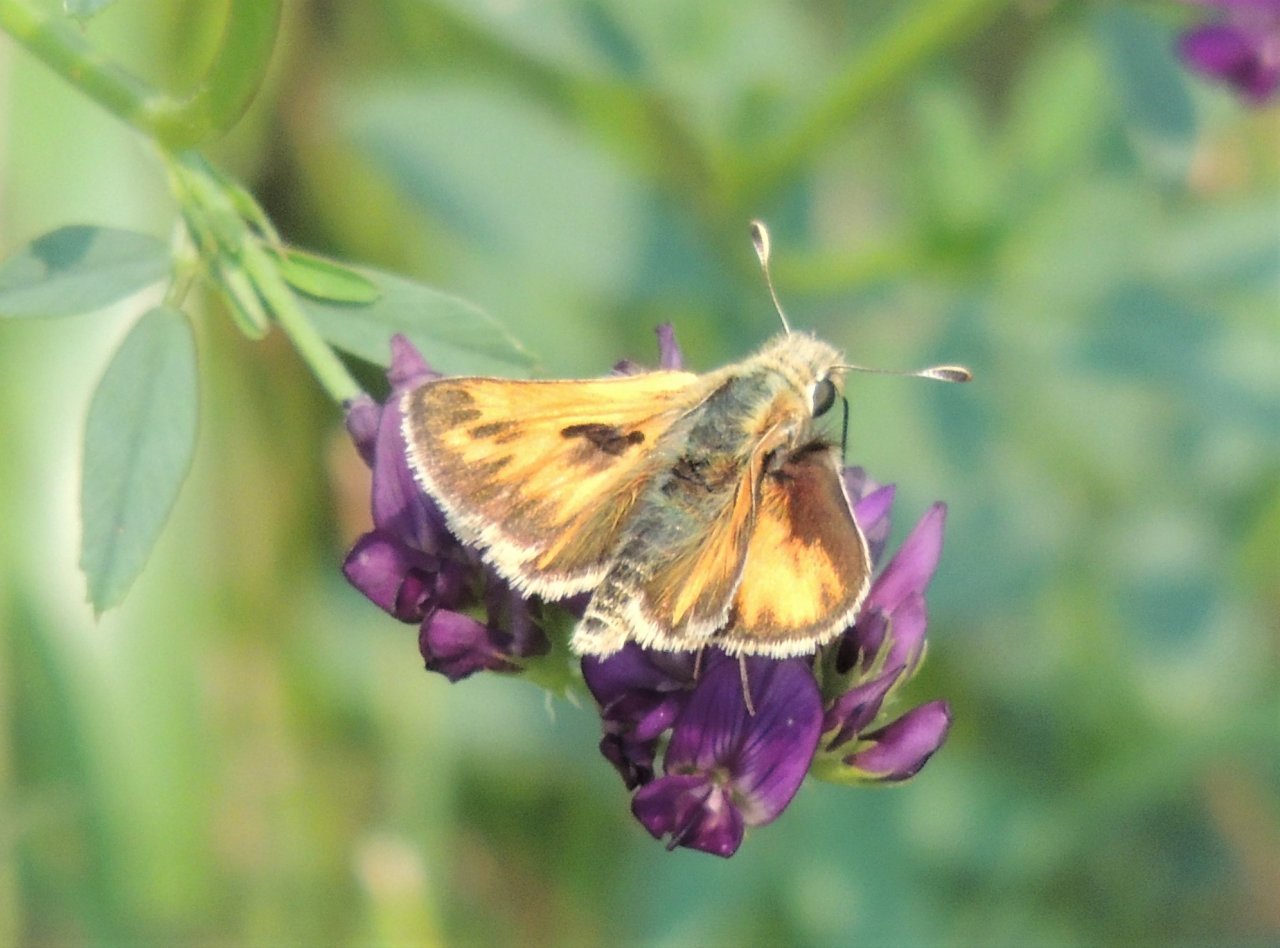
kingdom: Animalia
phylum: Arthropoda
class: Insecta
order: Lepidoptera
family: Hesperiidae
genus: Ochlodes
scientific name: Ochlodes sylvanoides
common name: Woodland Skipper
